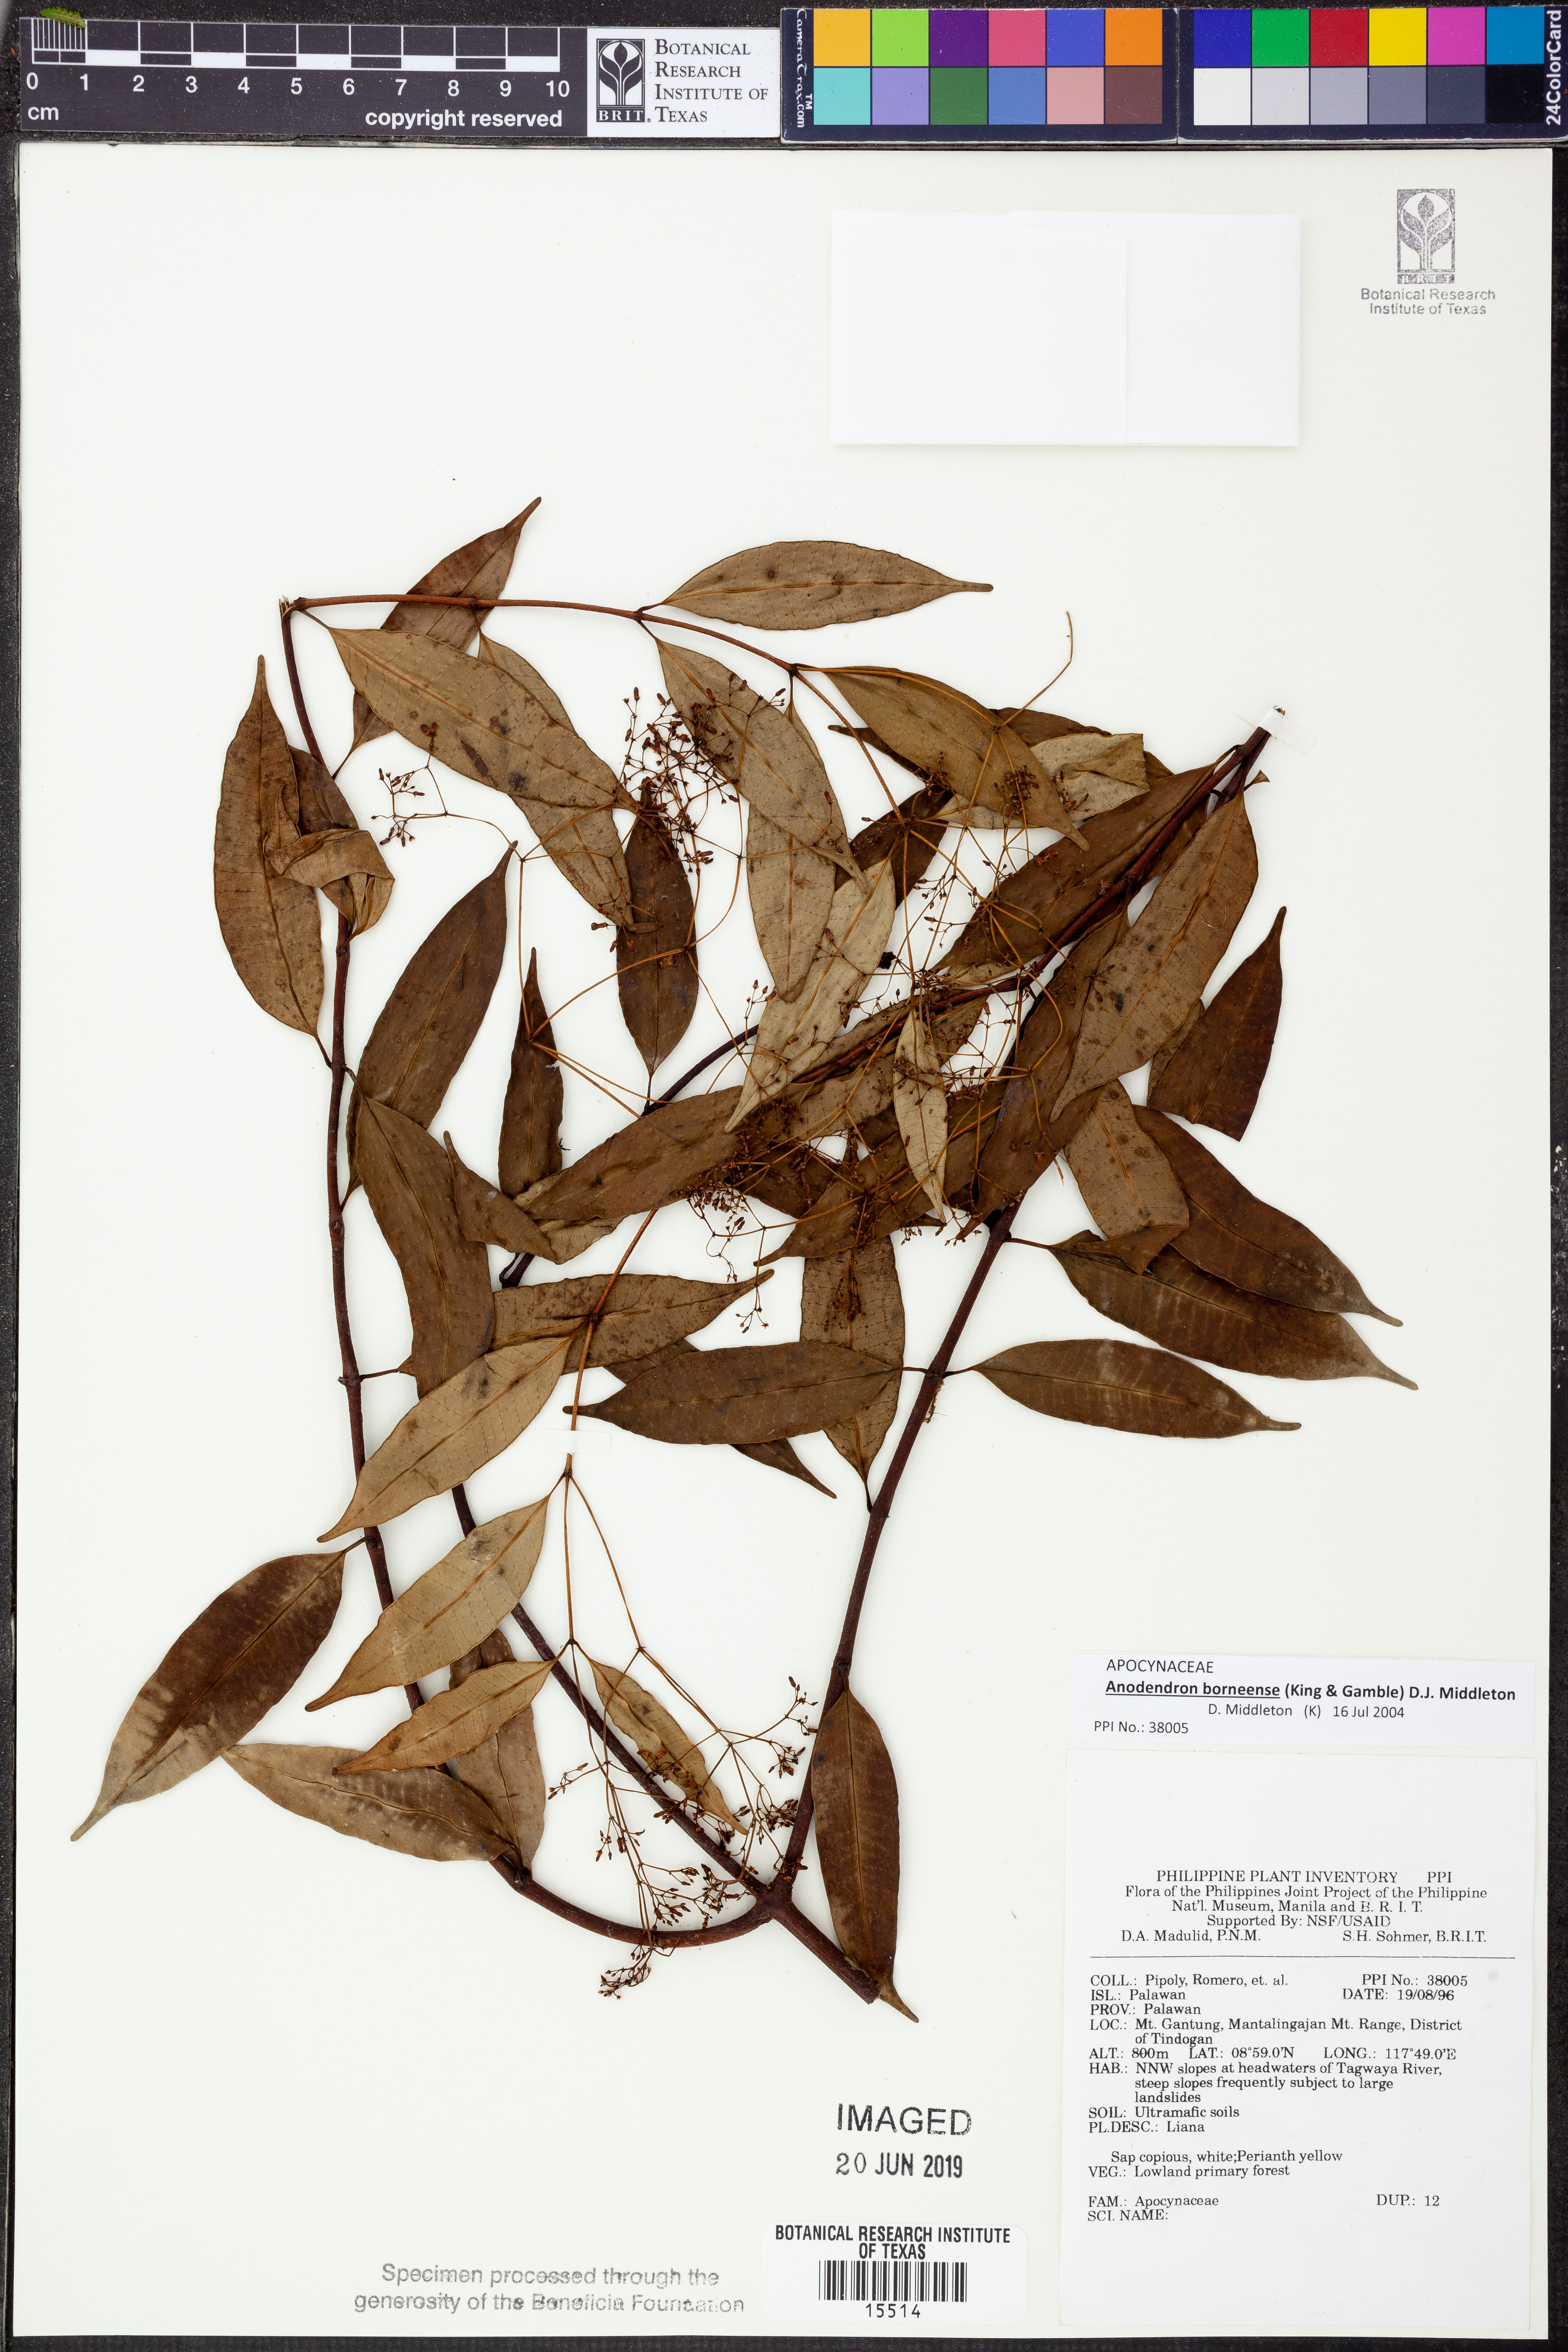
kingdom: Plantae
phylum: Tracheophyta
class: Magnoliopsida
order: Gentianales
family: Apocynaceae
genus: Anodendron
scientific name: Anodendron borneense
